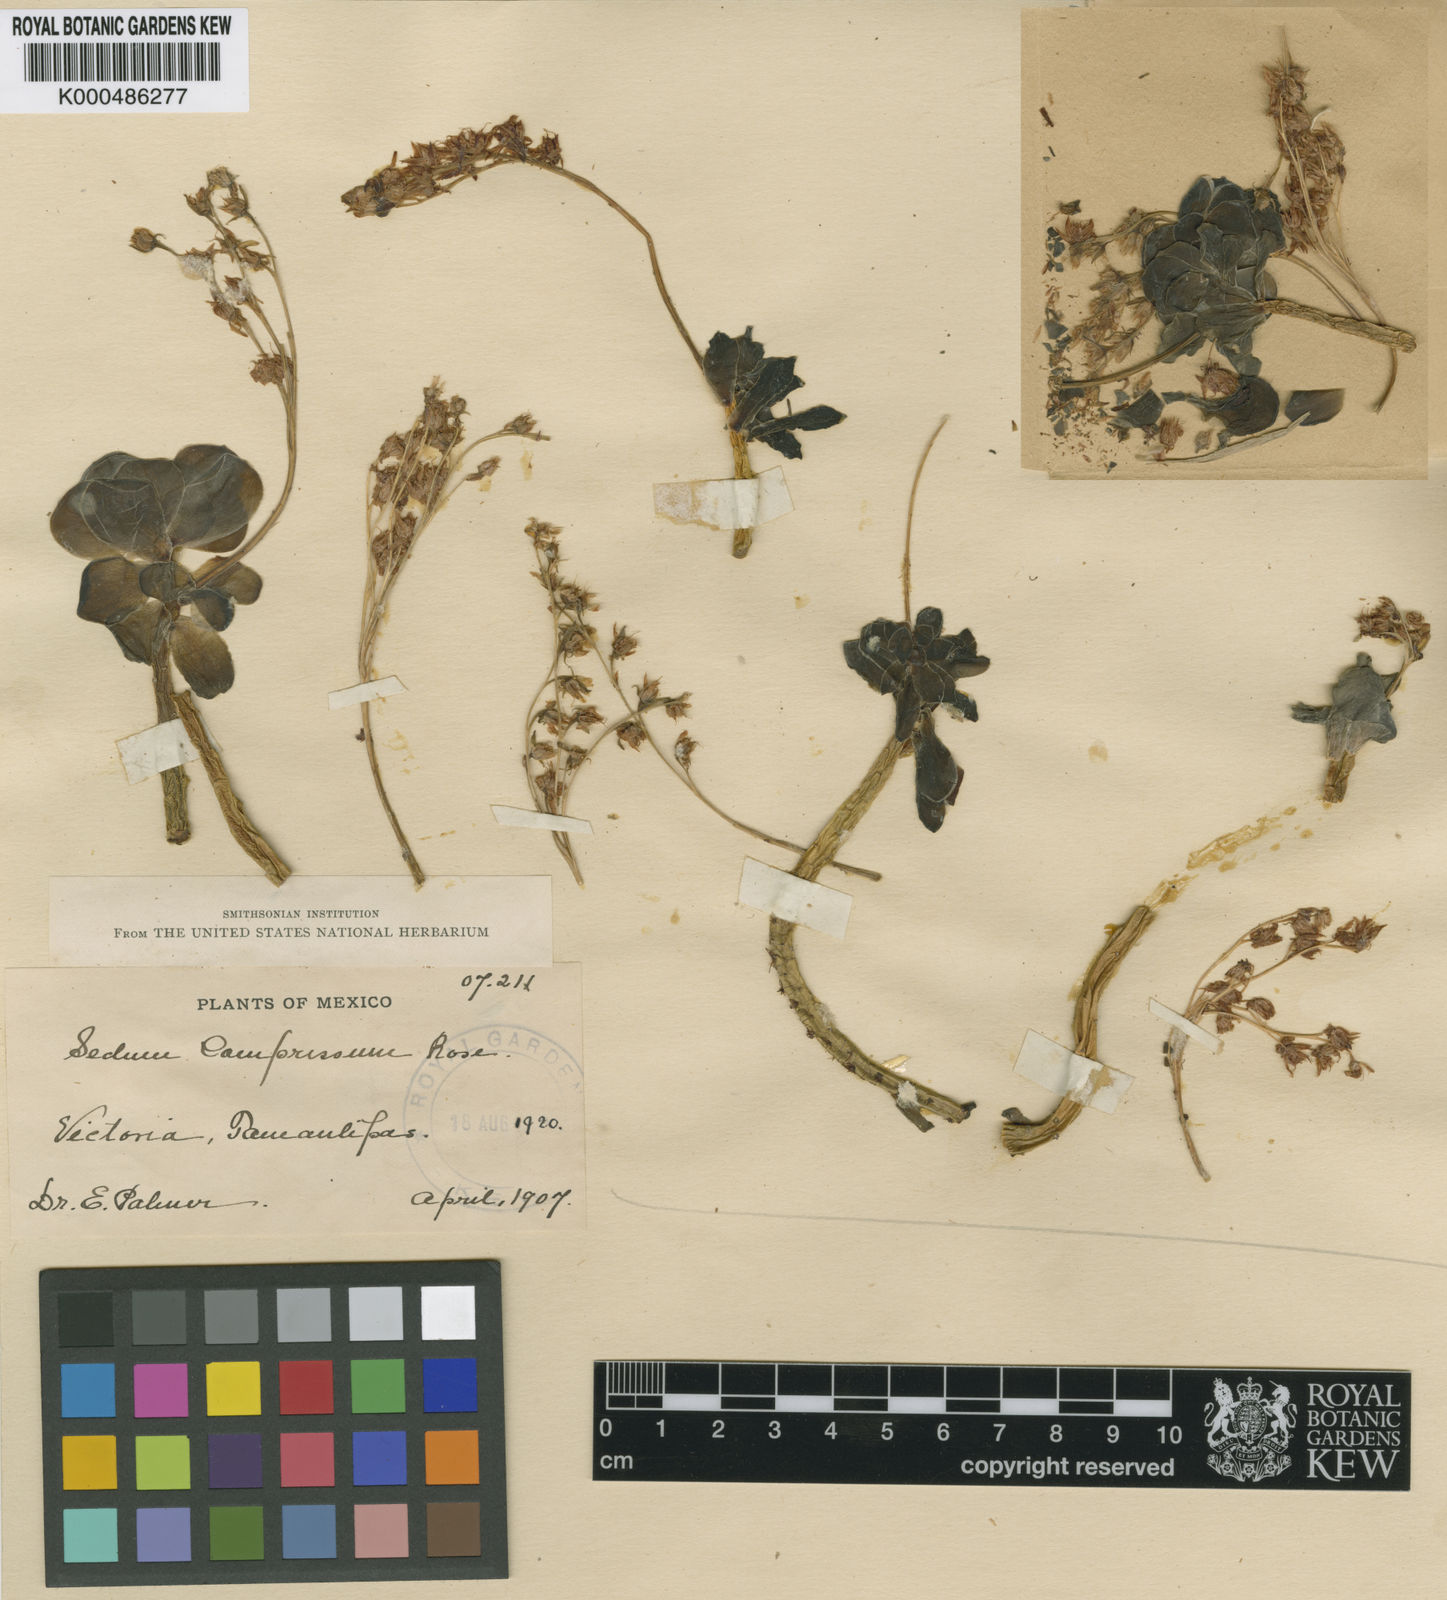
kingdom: Plantae
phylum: Tracheophyta
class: Magnoliopsida
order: Saxifragales
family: Crassulaceae
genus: Sedum
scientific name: Sedum palmeri
